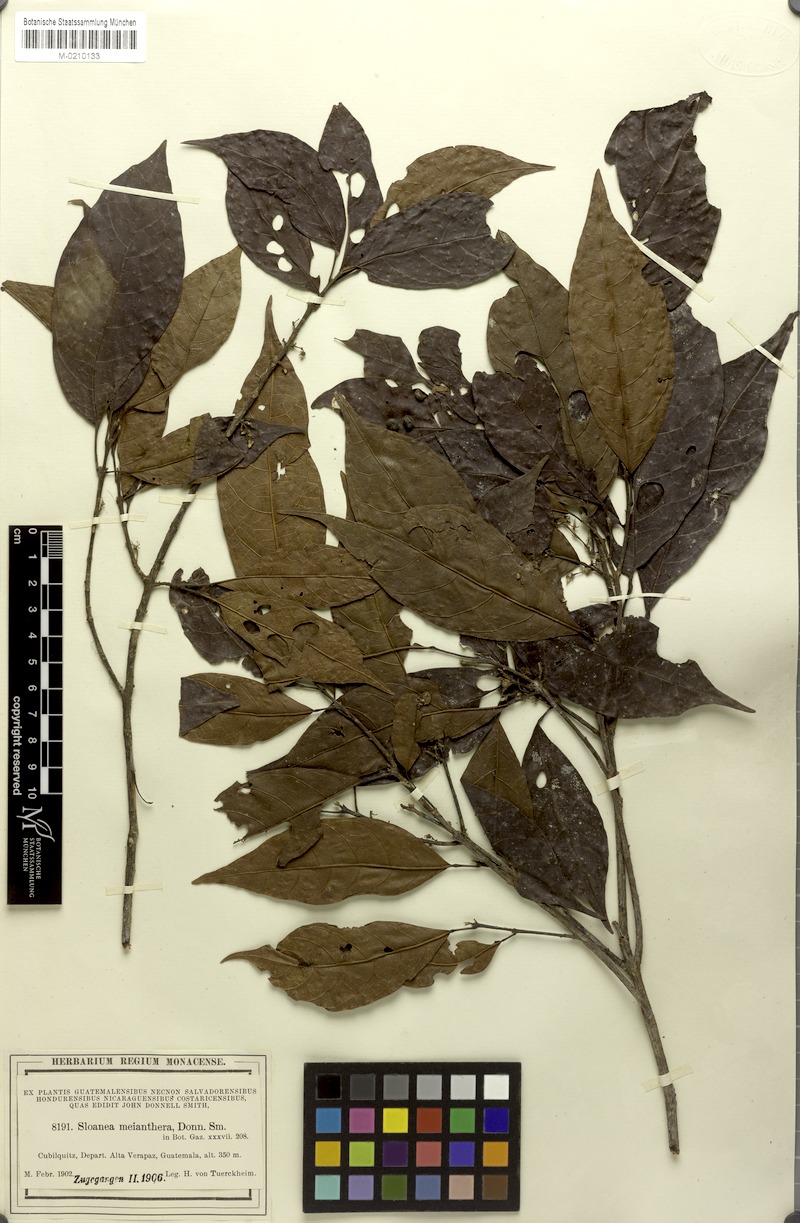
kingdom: Plantae
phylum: Tracheophyta
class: Magnoliopsida
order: Oxalidales
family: Elaeocarpaceae
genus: Sloanea
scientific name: Sloanea meianthera
